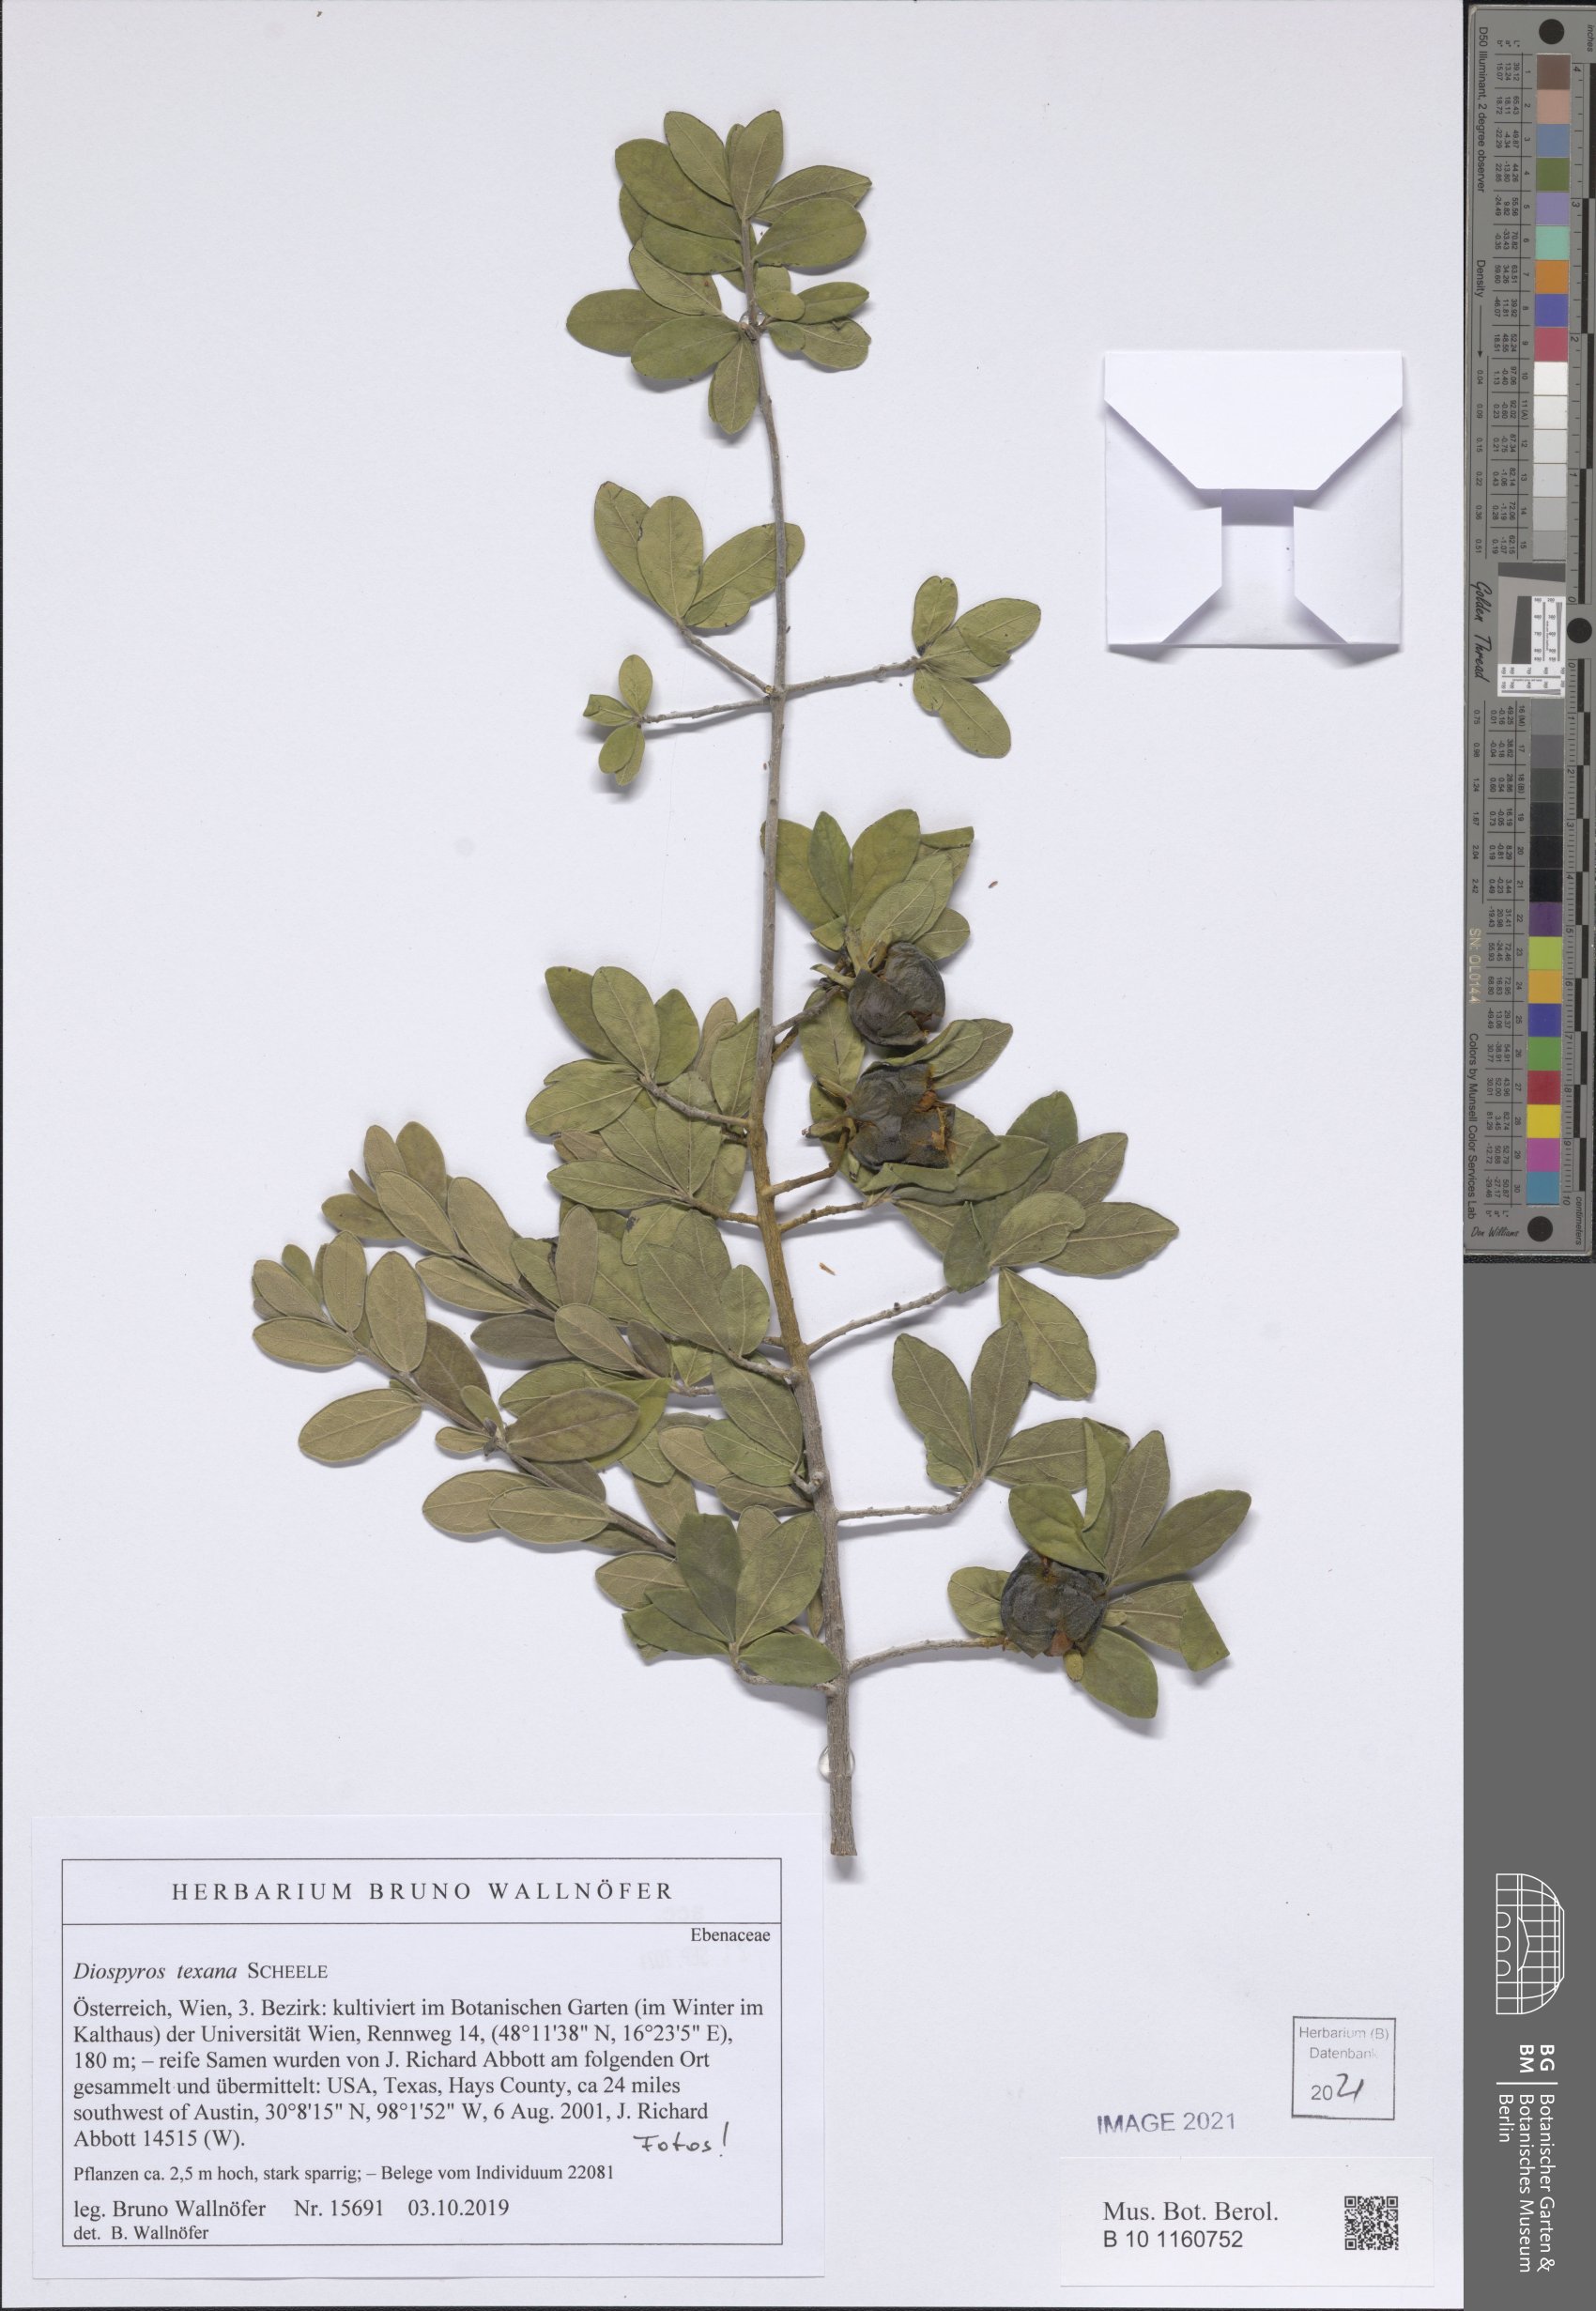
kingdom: Plantae
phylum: Tracheophyta
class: Magnoliopsida
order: Ericales
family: Ebenaceae
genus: Diospyros
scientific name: Diospyros texana
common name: Texas persimmon
